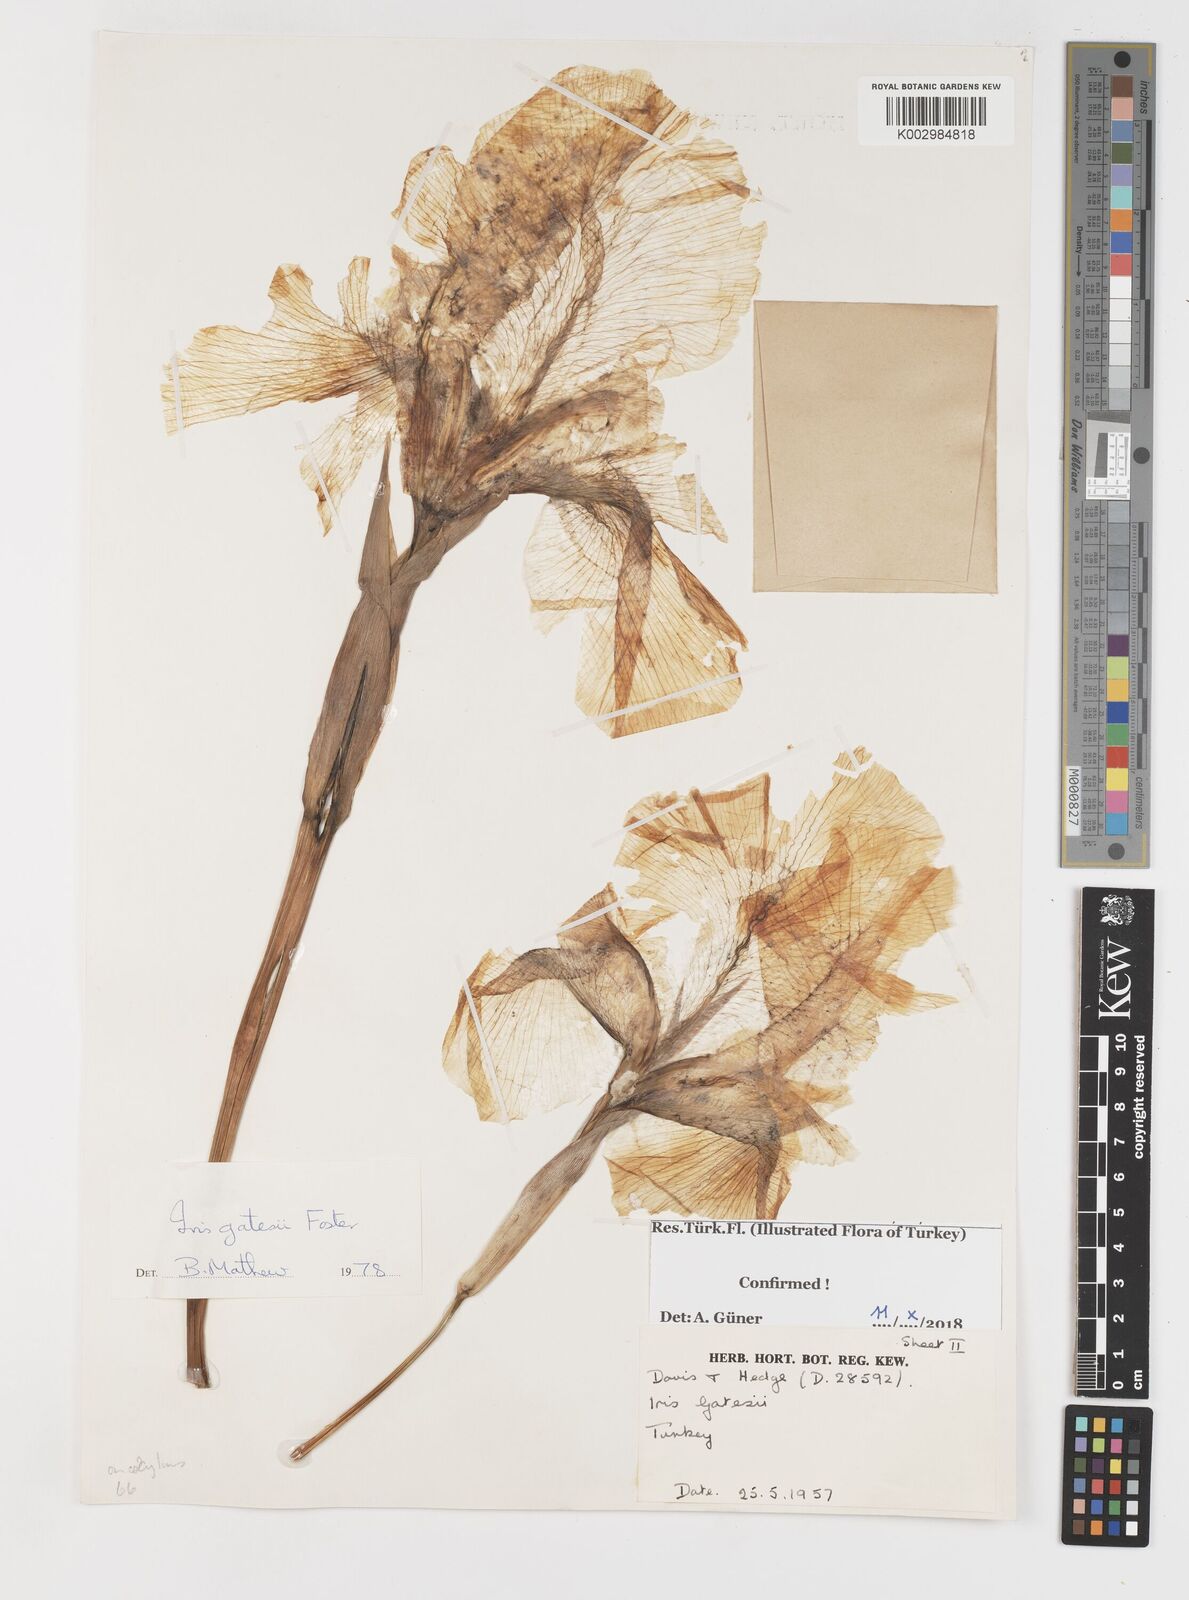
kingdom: Plantae
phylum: Tracheophyta
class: Liliopsida
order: Asparagales
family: Iridaceae
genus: Iris
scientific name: Iris gatesii
